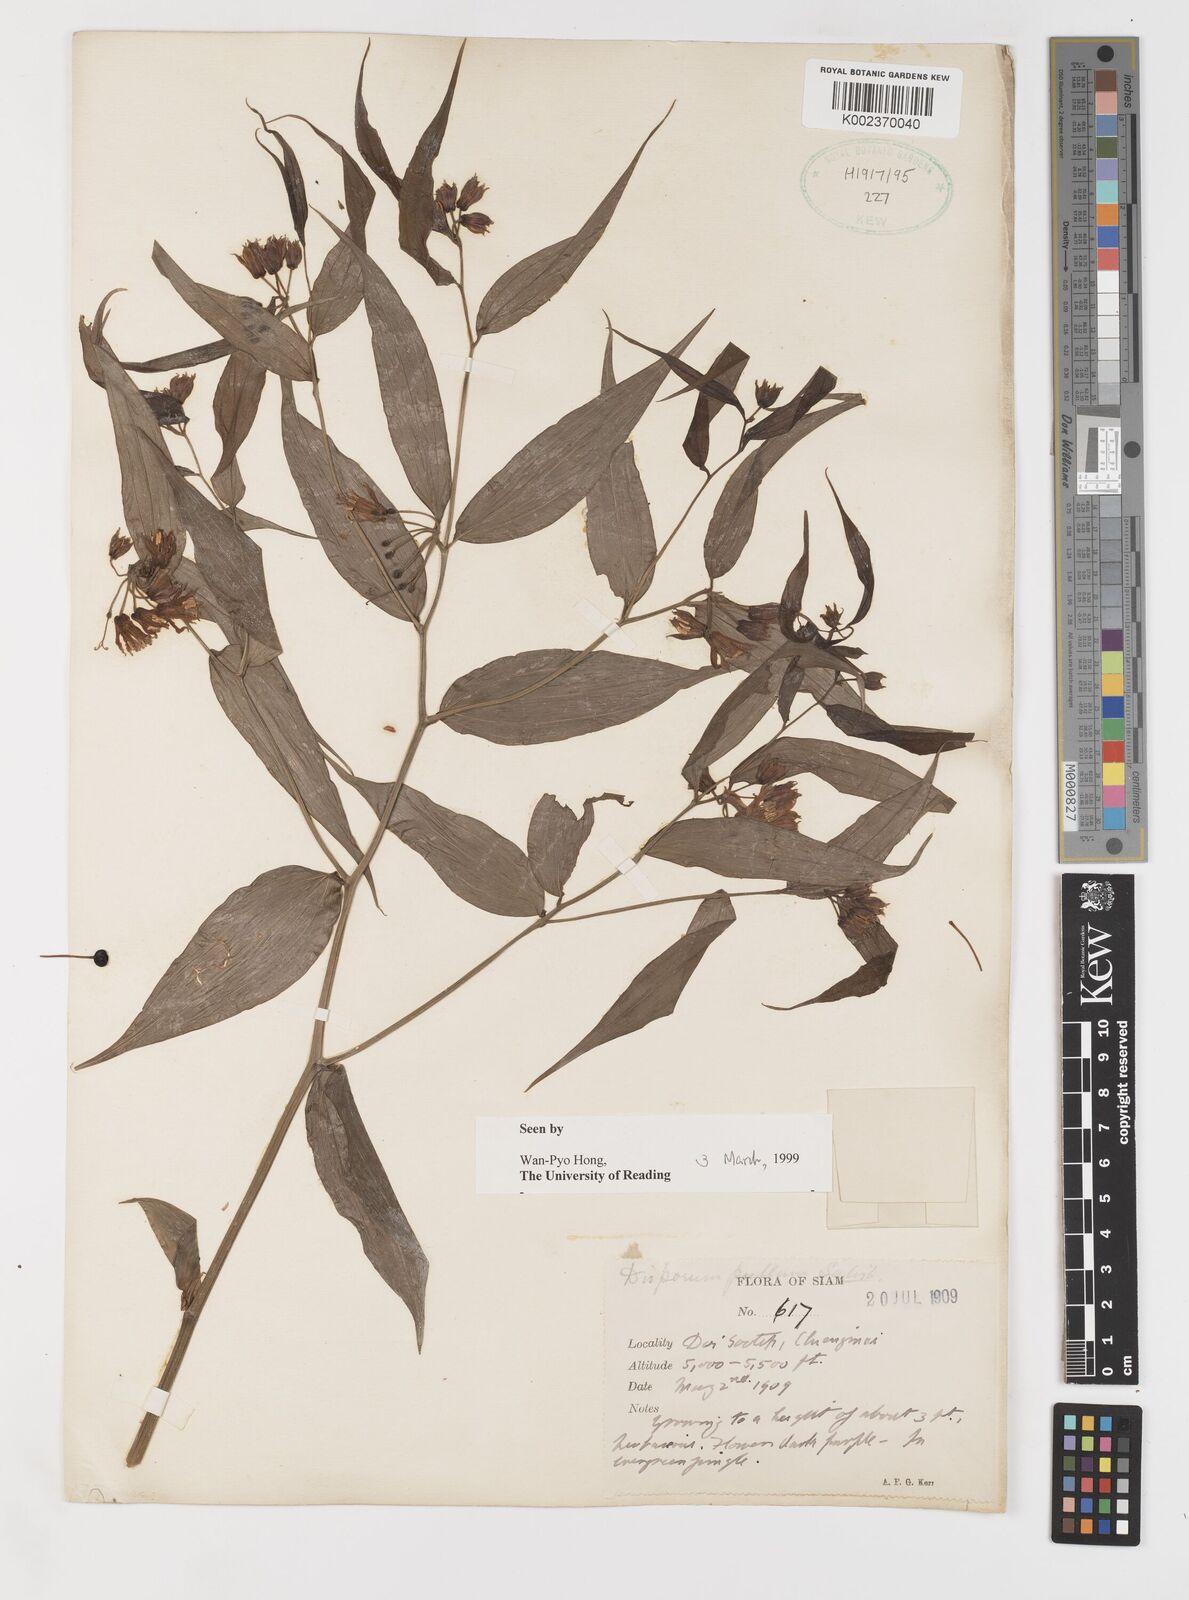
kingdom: Plantae
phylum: Tracheophyta
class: Liliopsida
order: Liliales
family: Colchicaceae
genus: Disporum
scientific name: Disporum cantoniense
